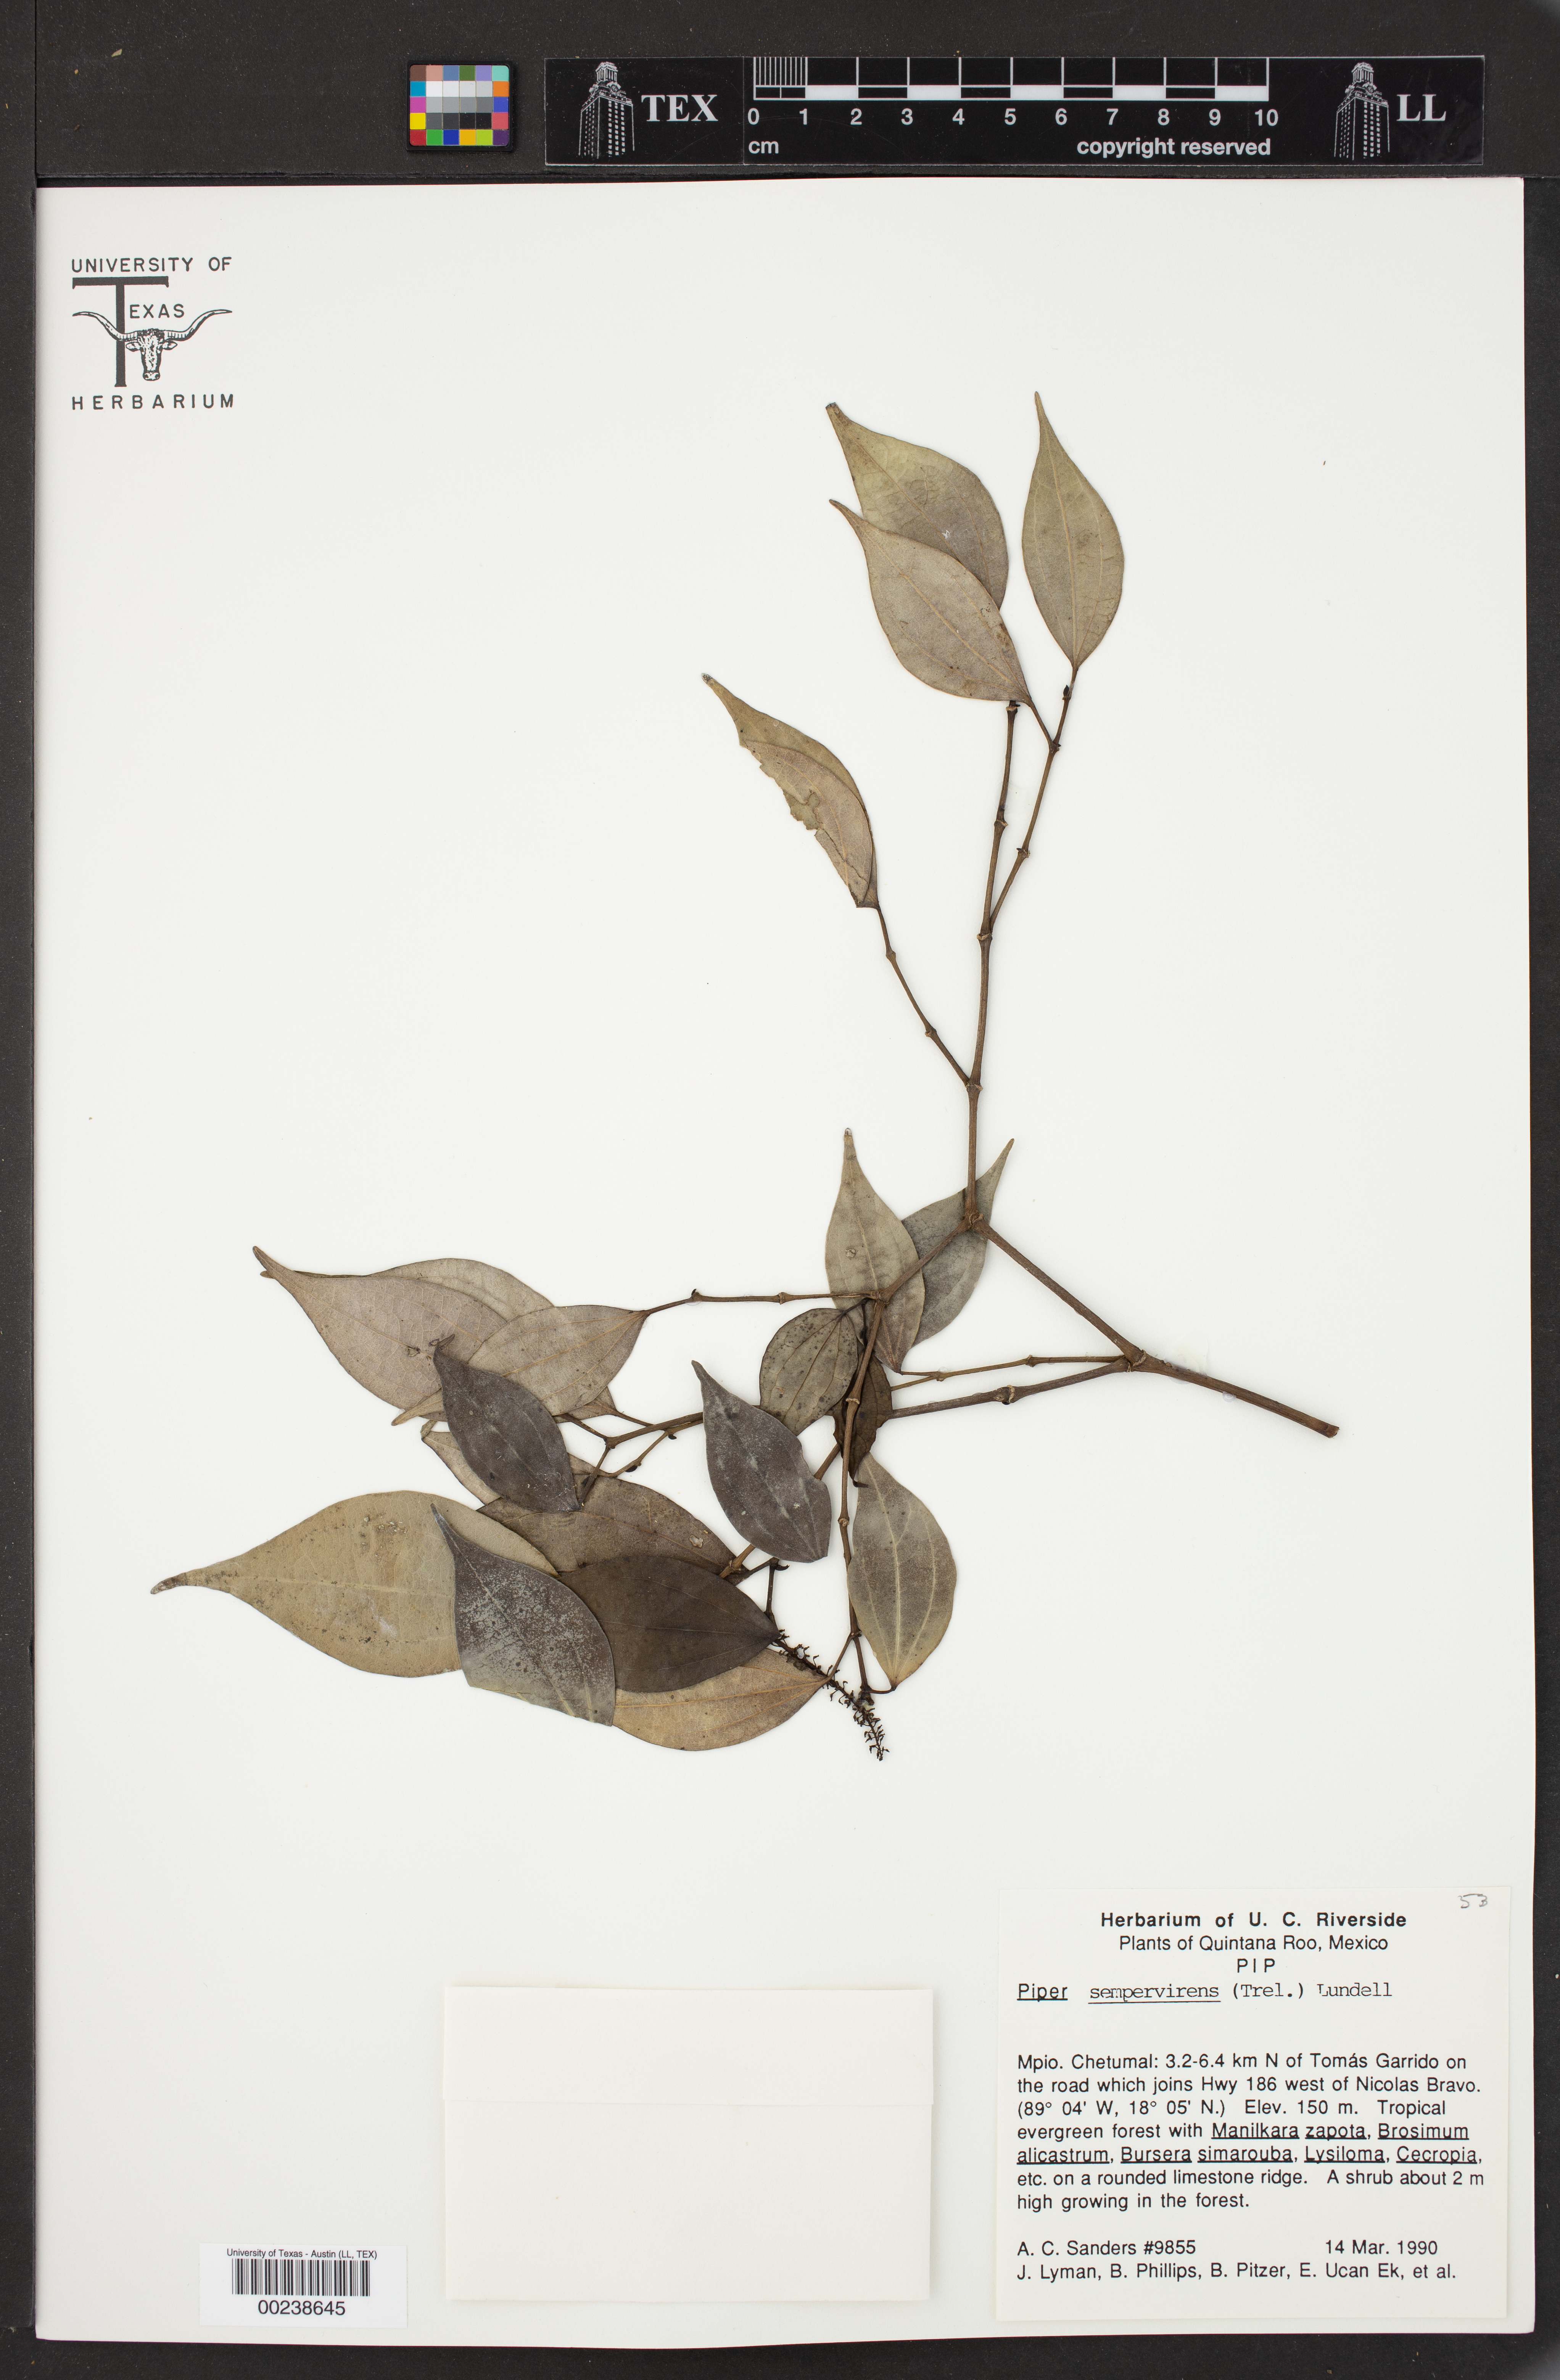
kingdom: Plantae
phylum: Tracheophyta
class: Magnoliopsida
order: Piperales
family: Piperaceae
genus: Piper
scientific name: Piper neesianum
